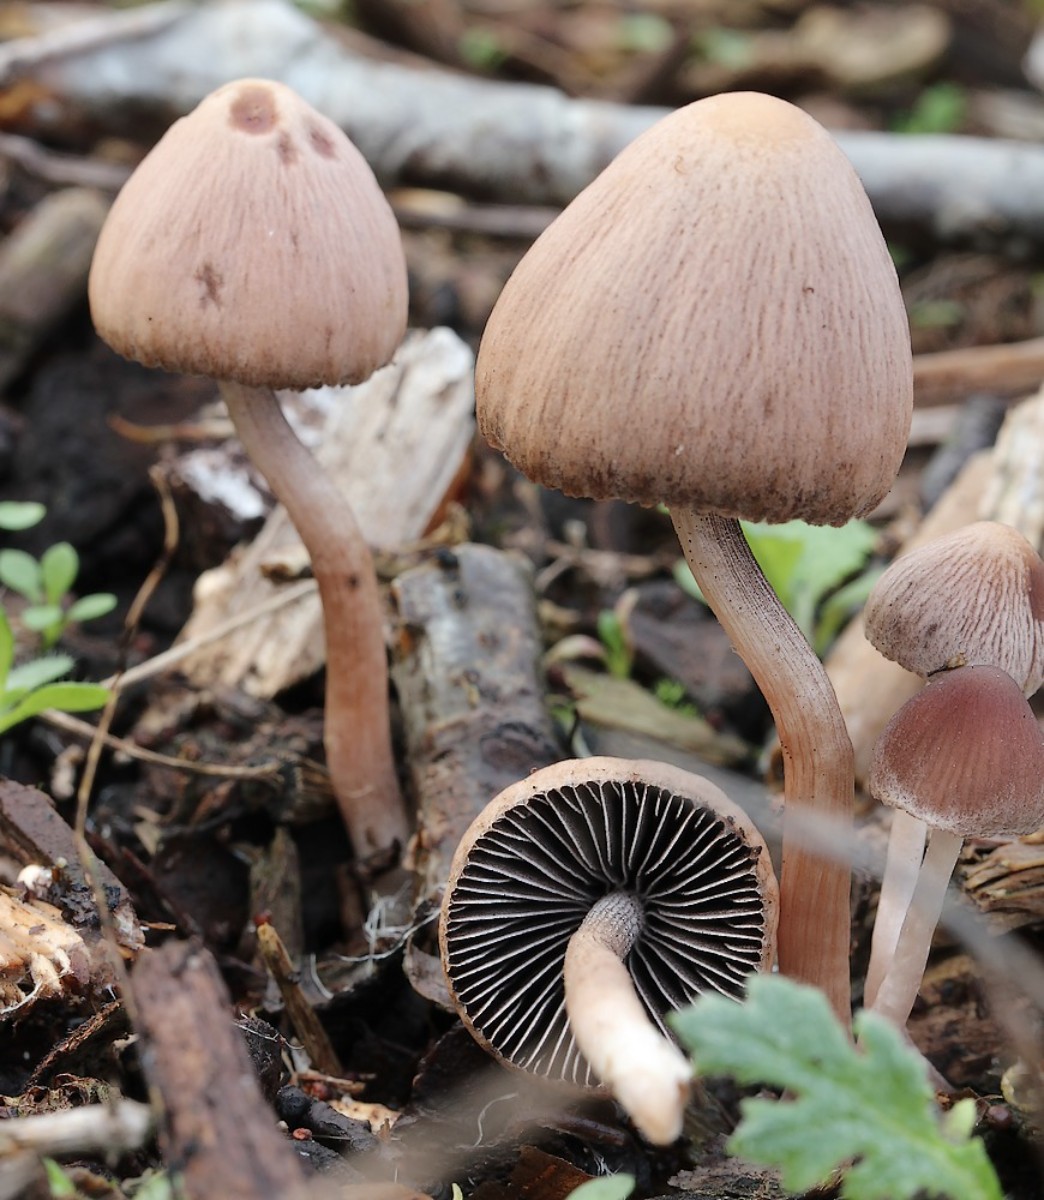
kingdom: Fungi
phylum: Basidiomycota
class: Agaricomycetes
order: Agaricales
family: Psathyrellaceae
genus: Psathyrella
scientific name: Psathyrella bipellis
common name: vinrød mørkhat
